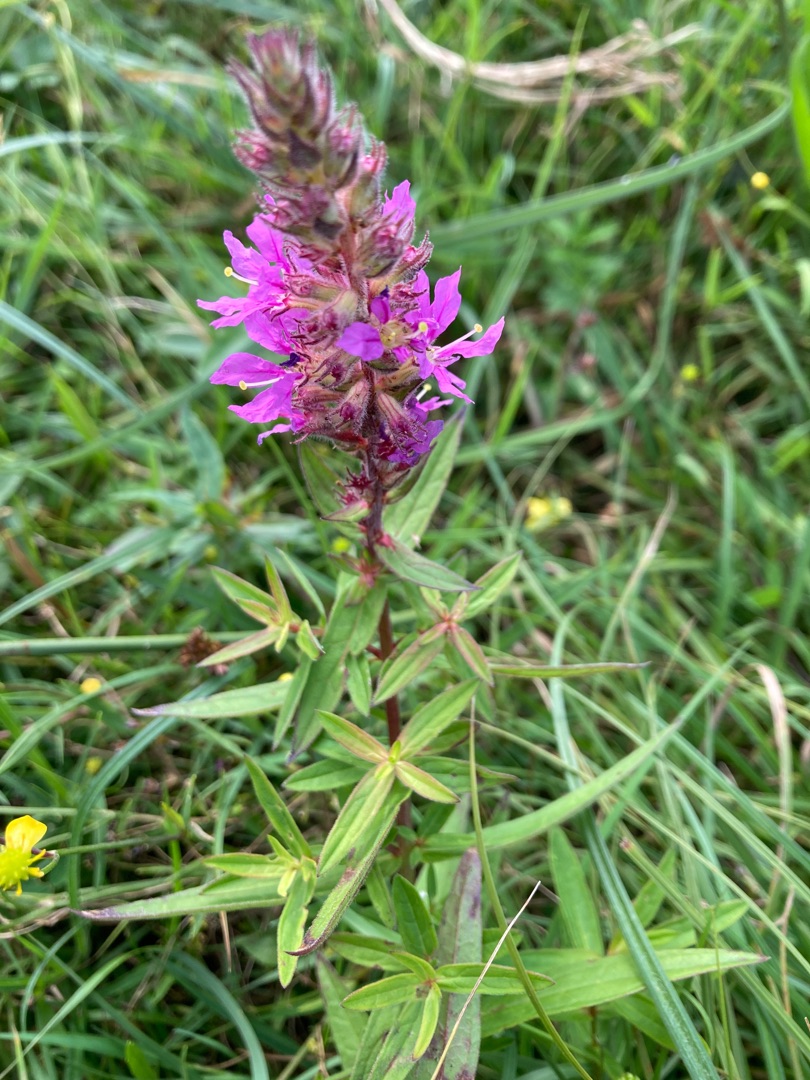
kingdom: Plantae
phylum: Tracheophyta
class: Magnoliopsida
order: Myrtales
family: Lythraceae
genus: Lythrum
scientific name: Lythrum salicaria
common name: Kattehale
